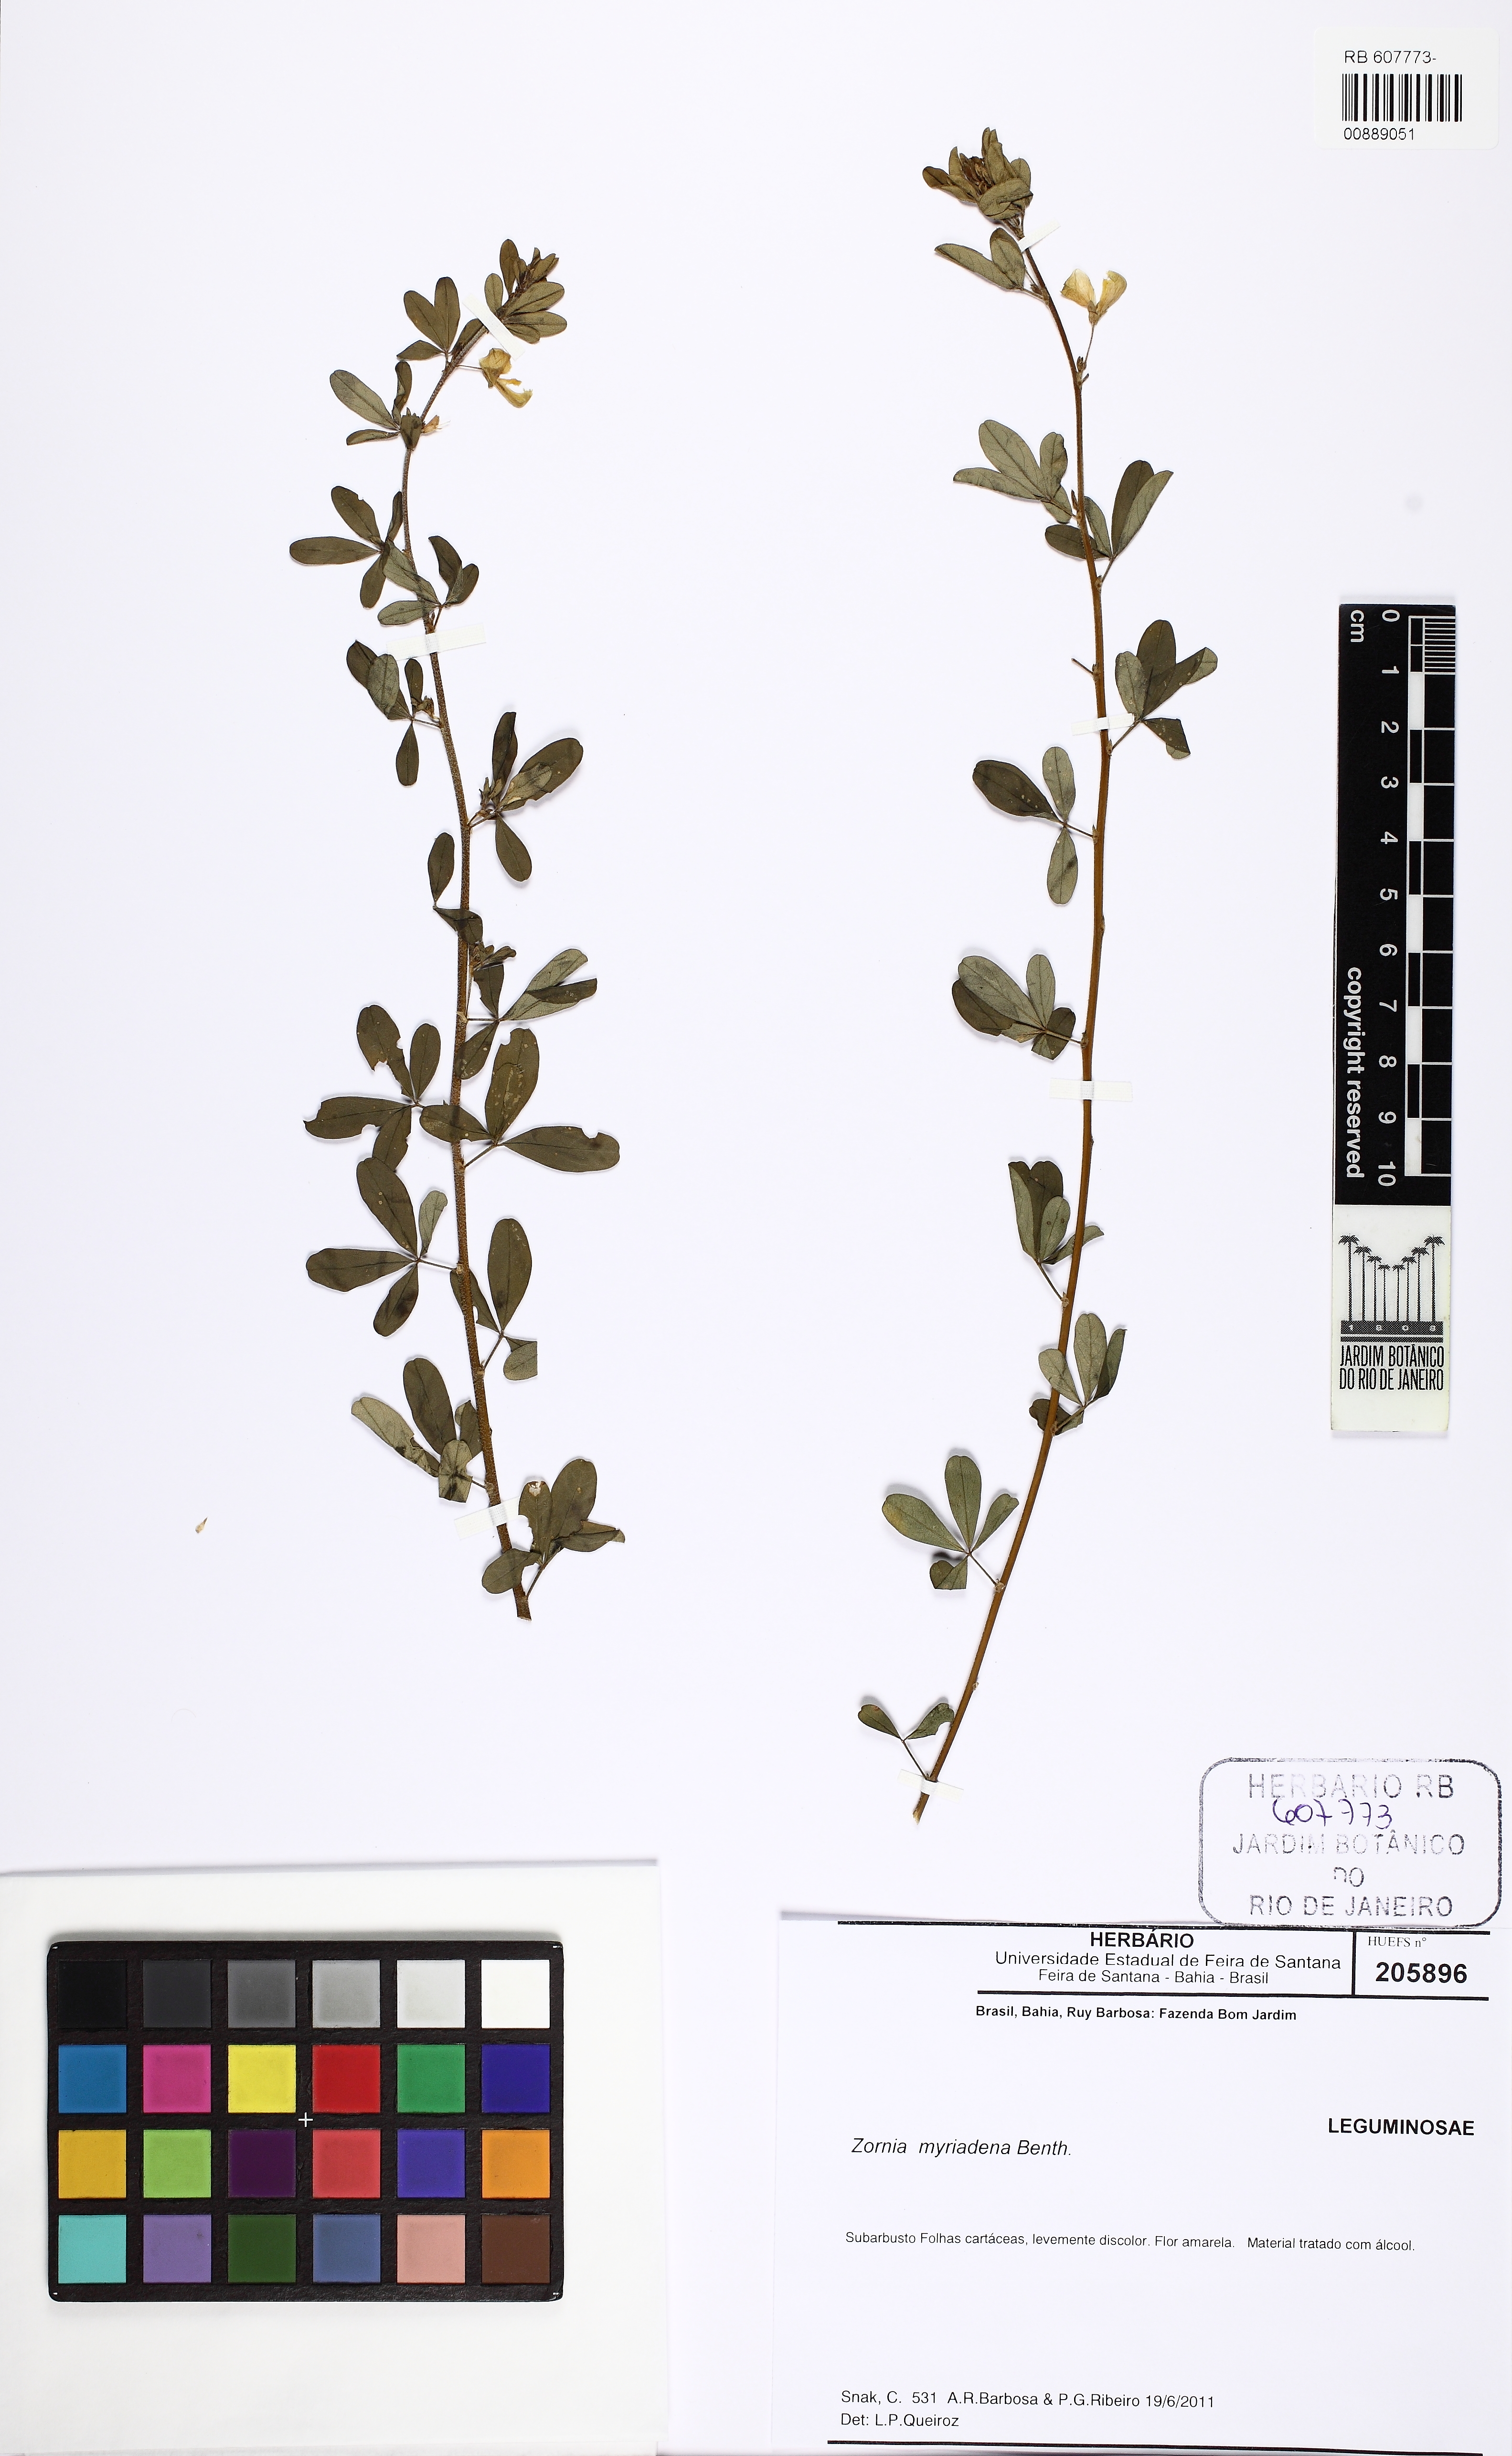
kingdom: Plantae
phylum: Tracheophyta
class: Magnoliopsida
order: Fabales
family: Fabaceae
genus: Zornia
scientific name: Zornia myriadena
